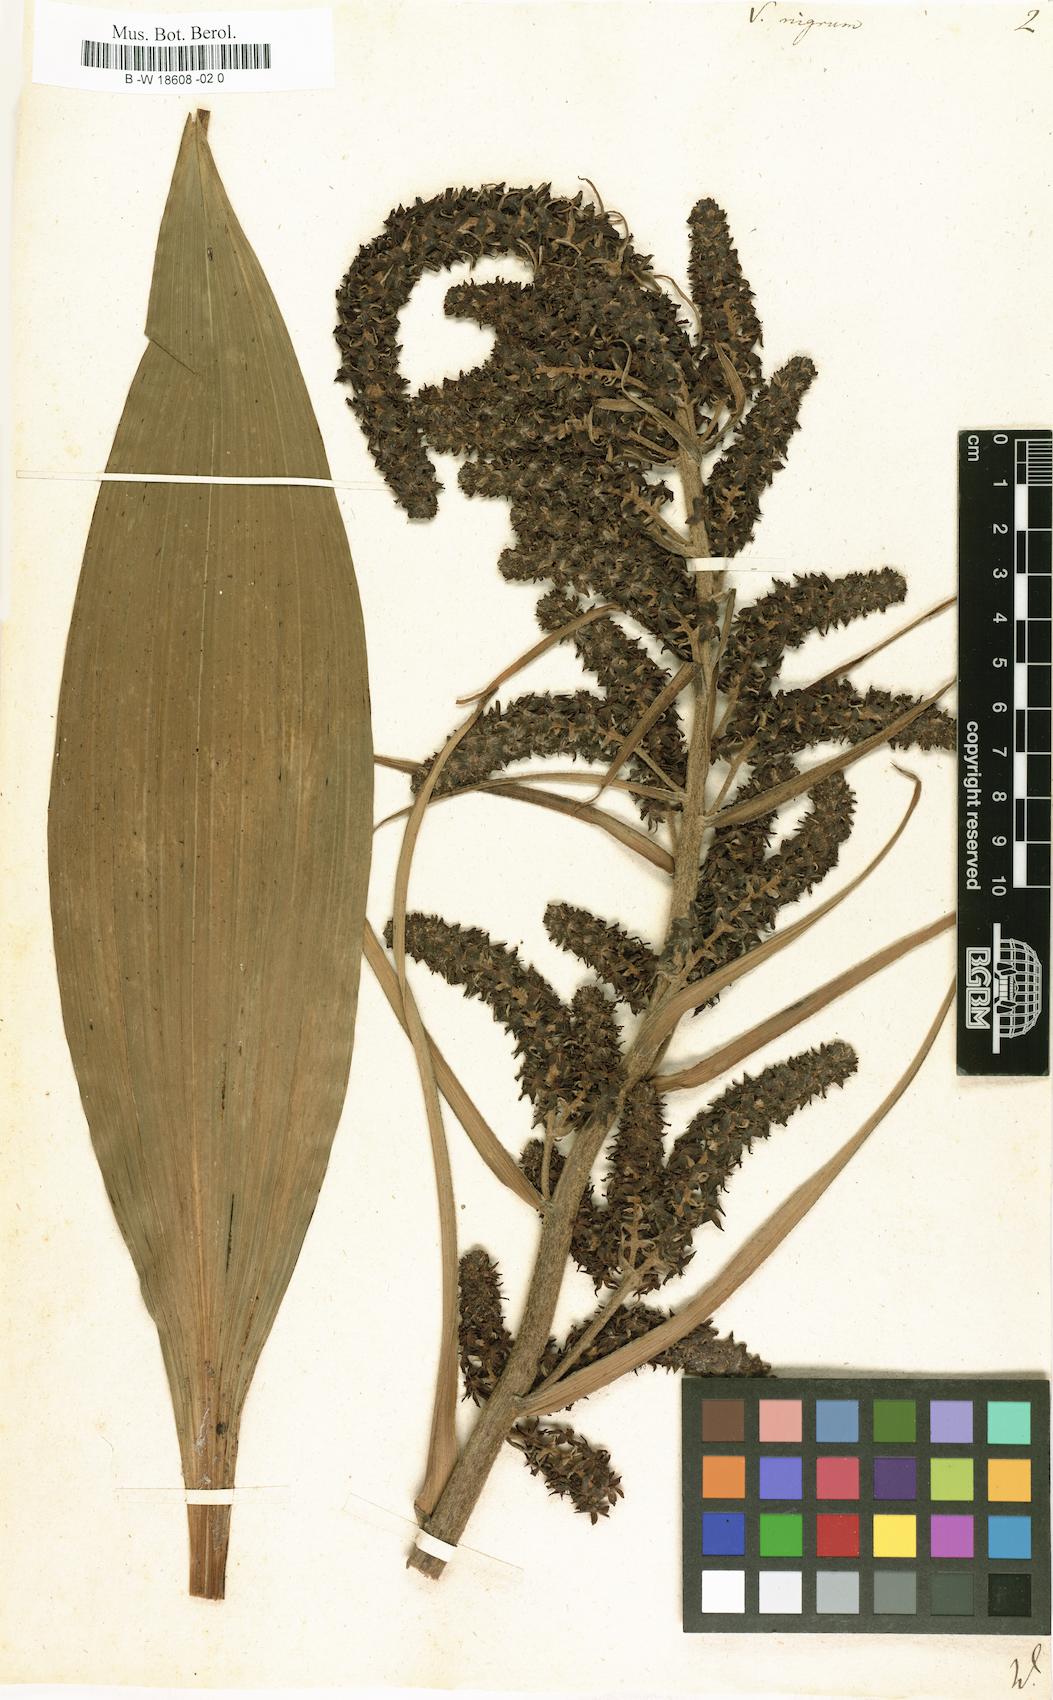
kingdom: Plantae
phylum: Tracheophyta
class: Liliopsida
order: Liliales
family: Melanthiaceae
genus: Veratrum
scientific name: Veratrum nigrum
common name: Black veratrum
